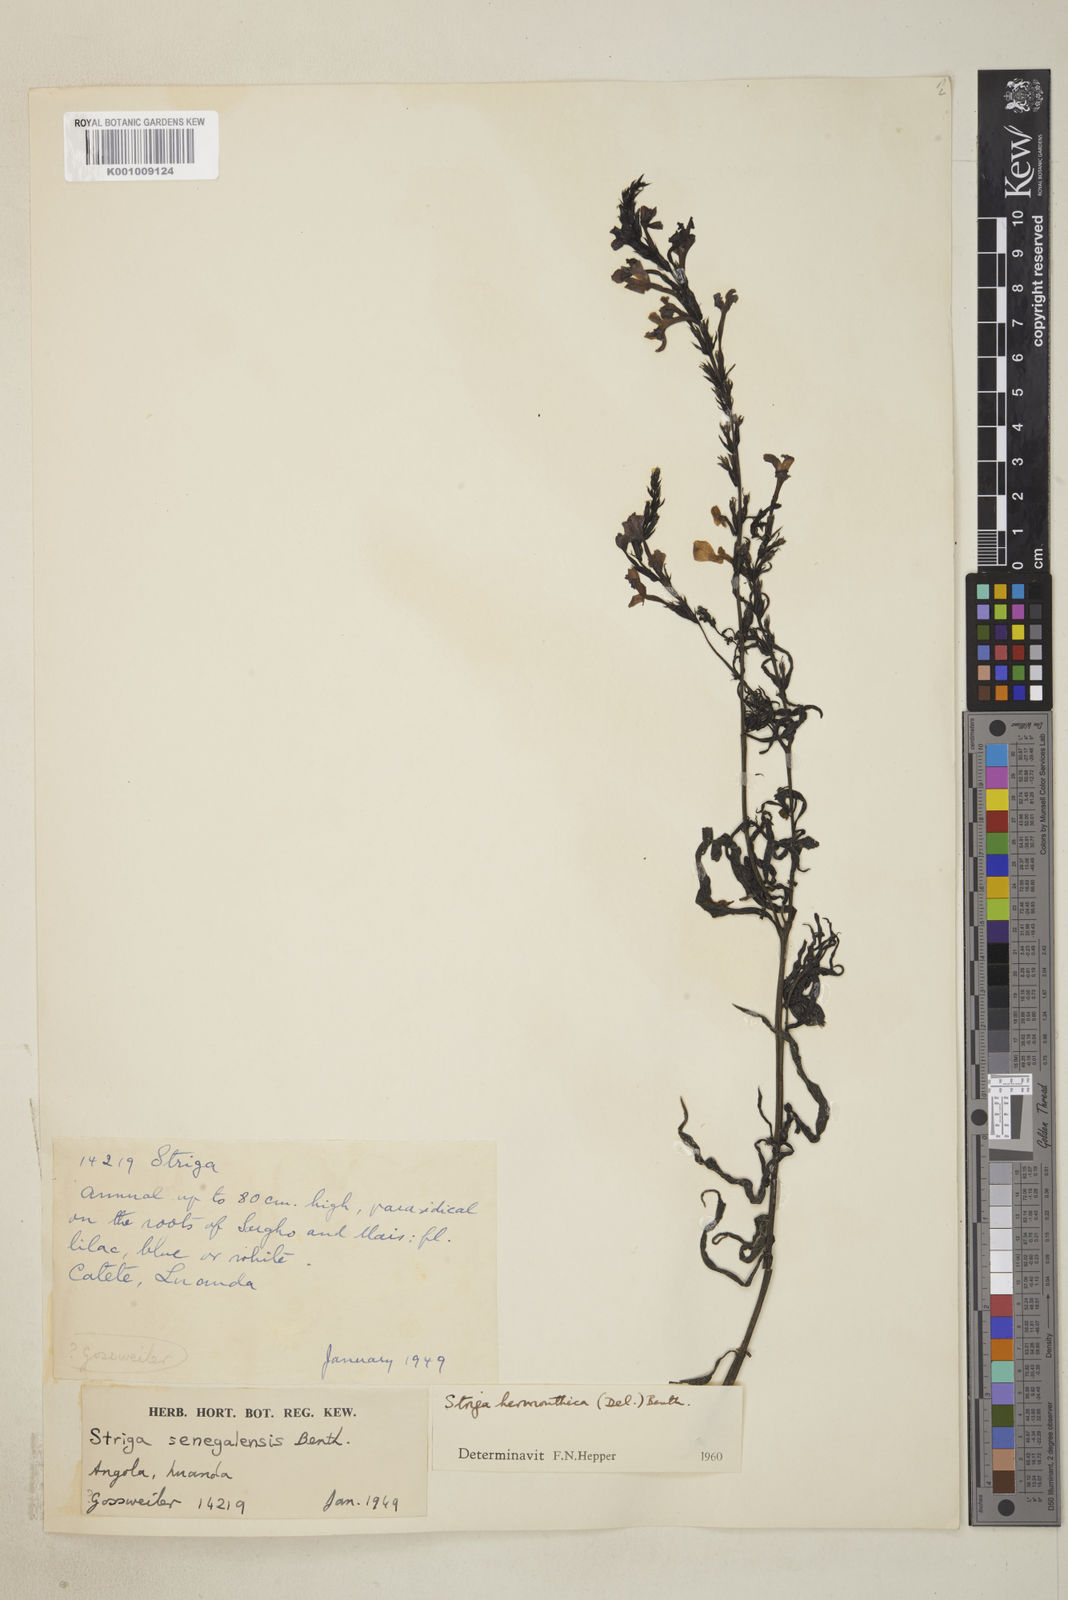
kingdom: Plantae
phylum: Tracheophyta
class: Magnoliopsida
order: Lamiales
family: Orobanchaceae
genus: Striga
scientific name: Striga hermonthica
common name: Purple witchweed
